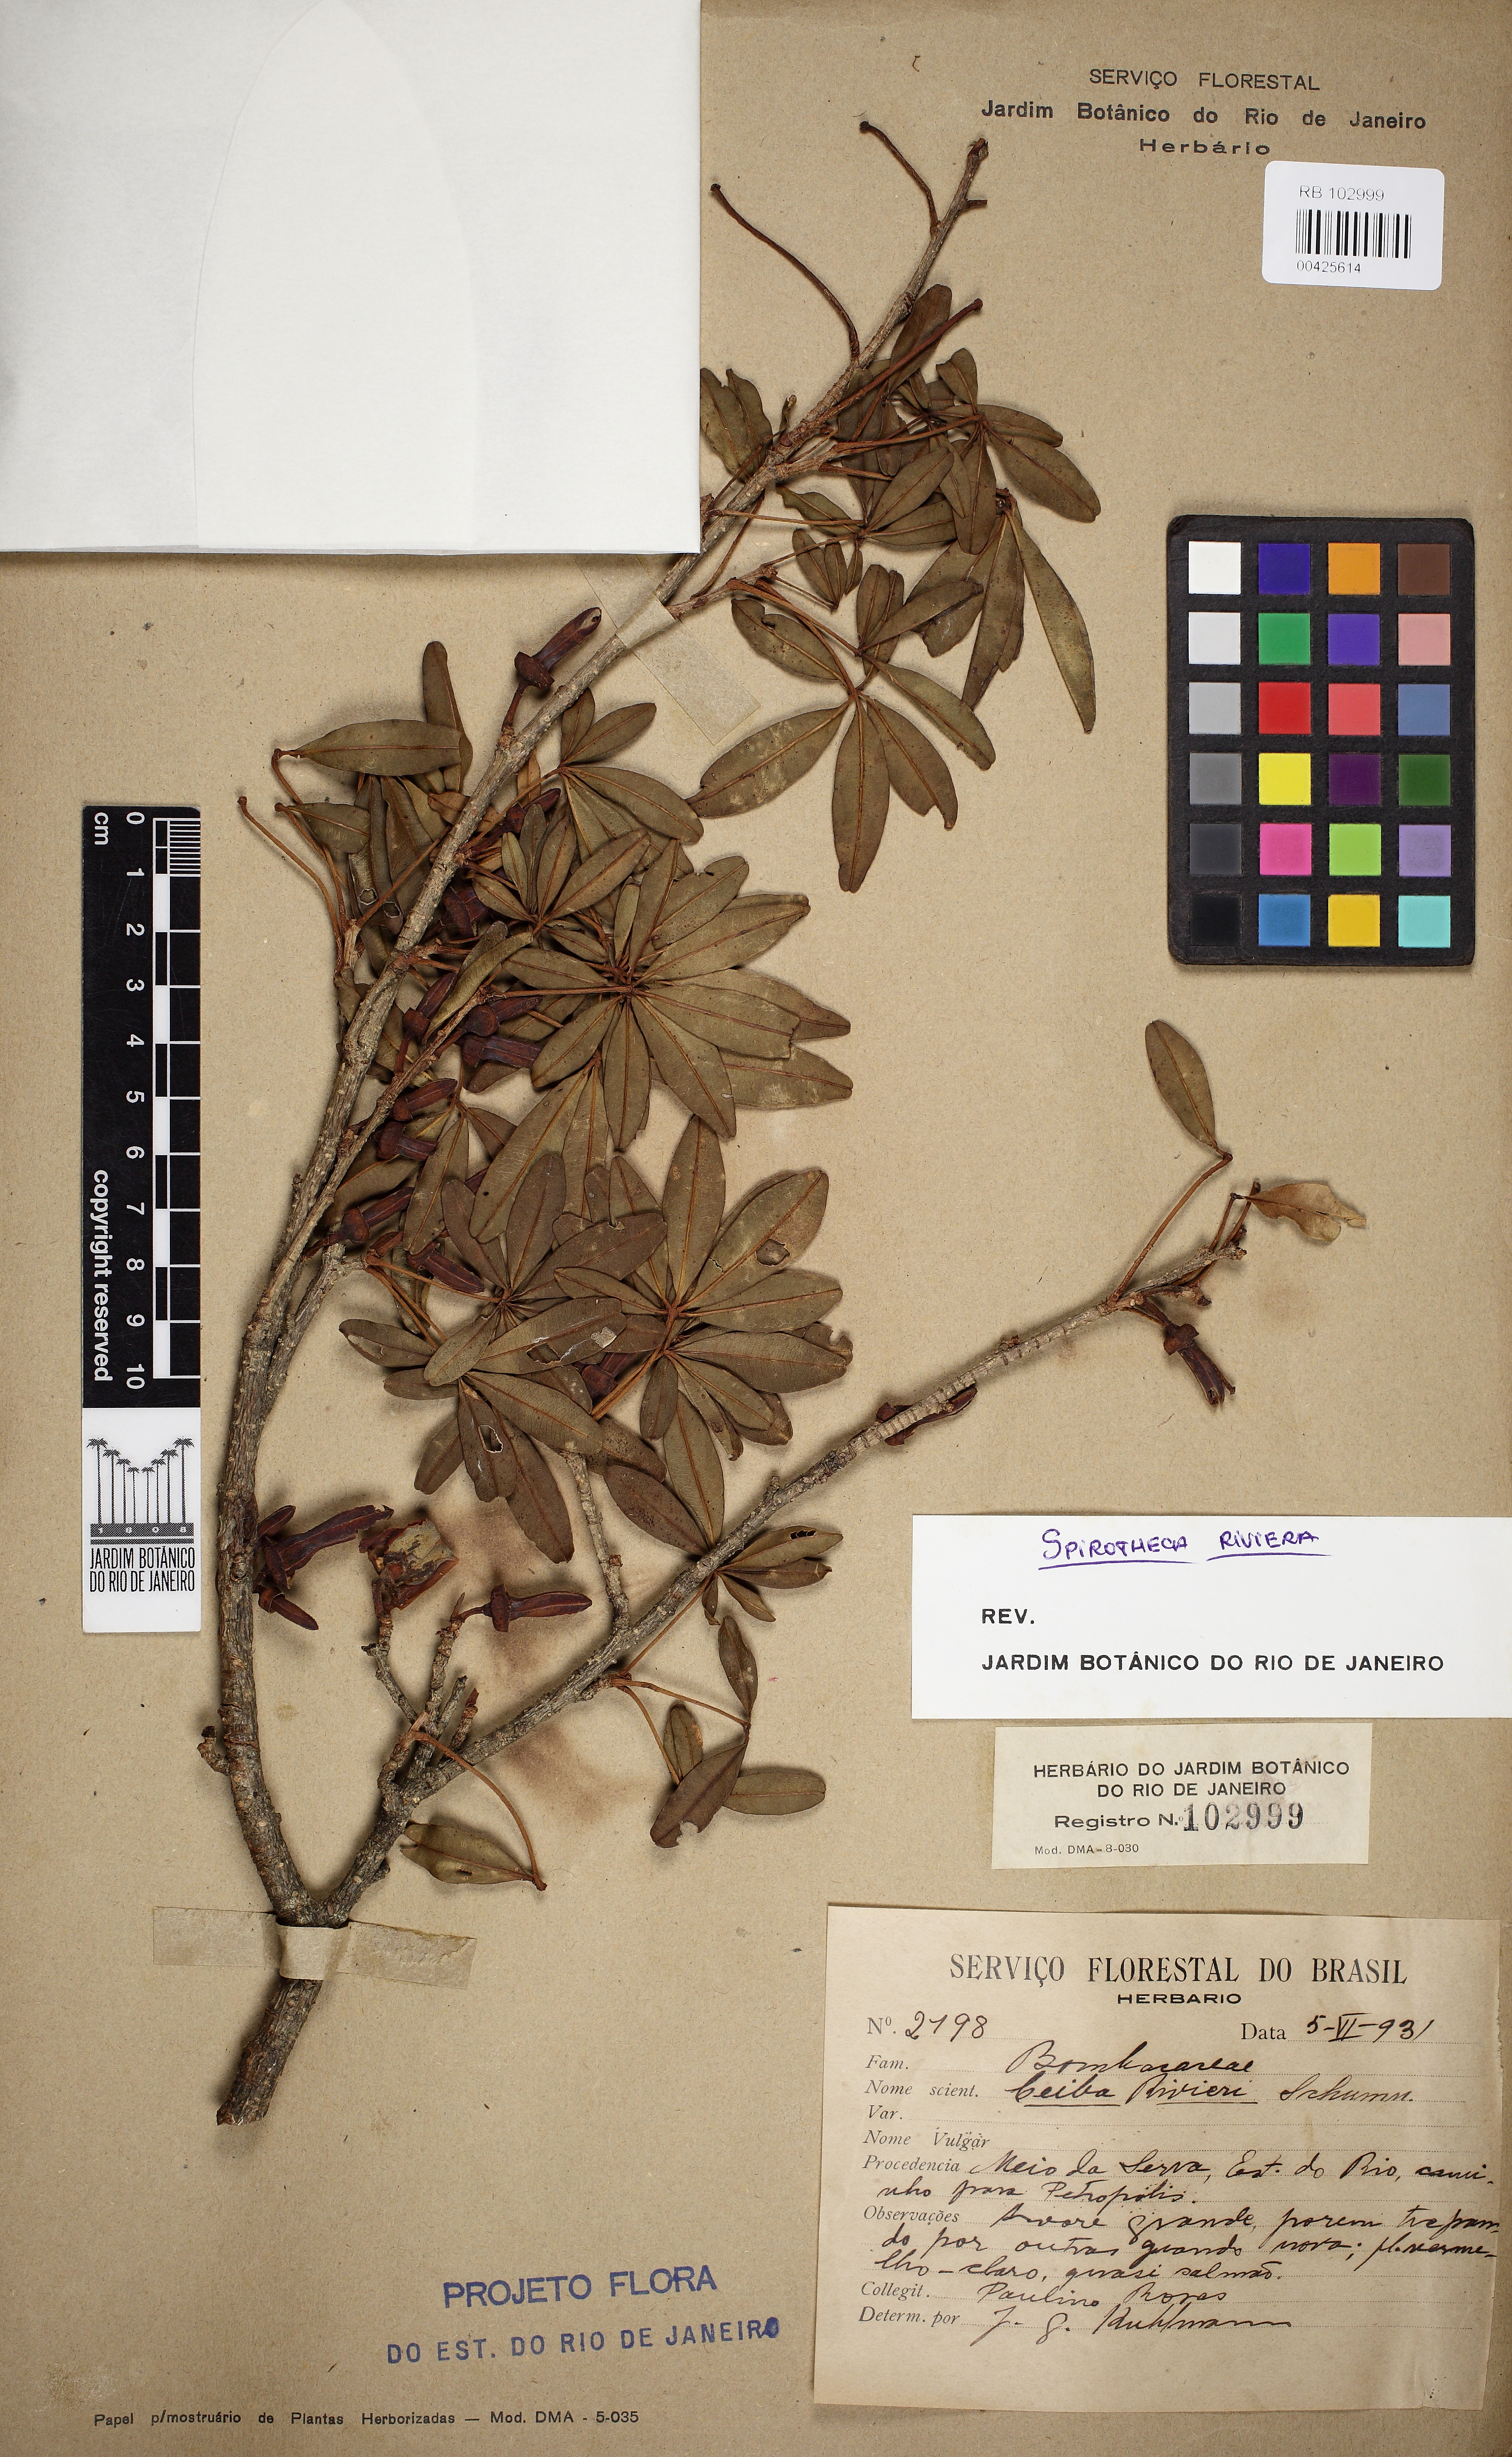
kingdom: Plantae
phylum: Tracheophyta
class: Magnoliopsida
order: Malvales
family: Malvaceae
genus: Spirotheca
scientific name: Spirotheca rivieri
